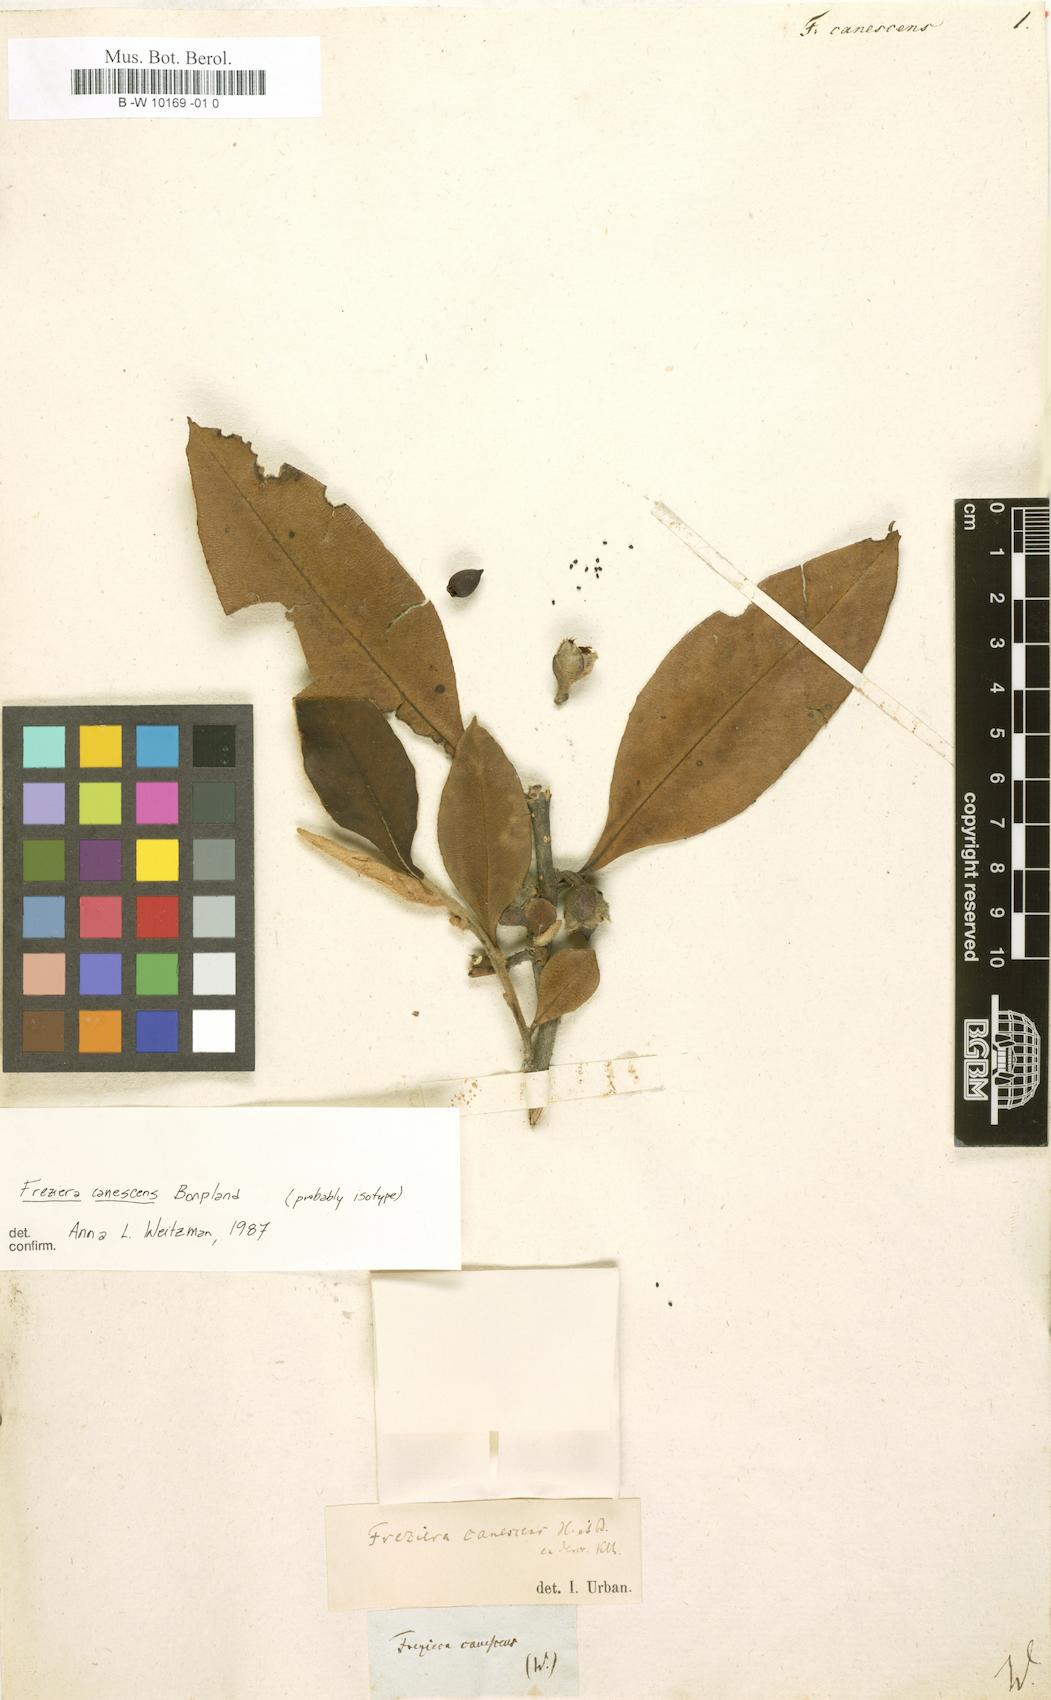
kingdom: Plantae
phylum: Tracheophyta
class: Magnoliopsida
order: Ericales
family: Pentaphylacaceae
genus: Freziera
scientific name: Freziera canescens
